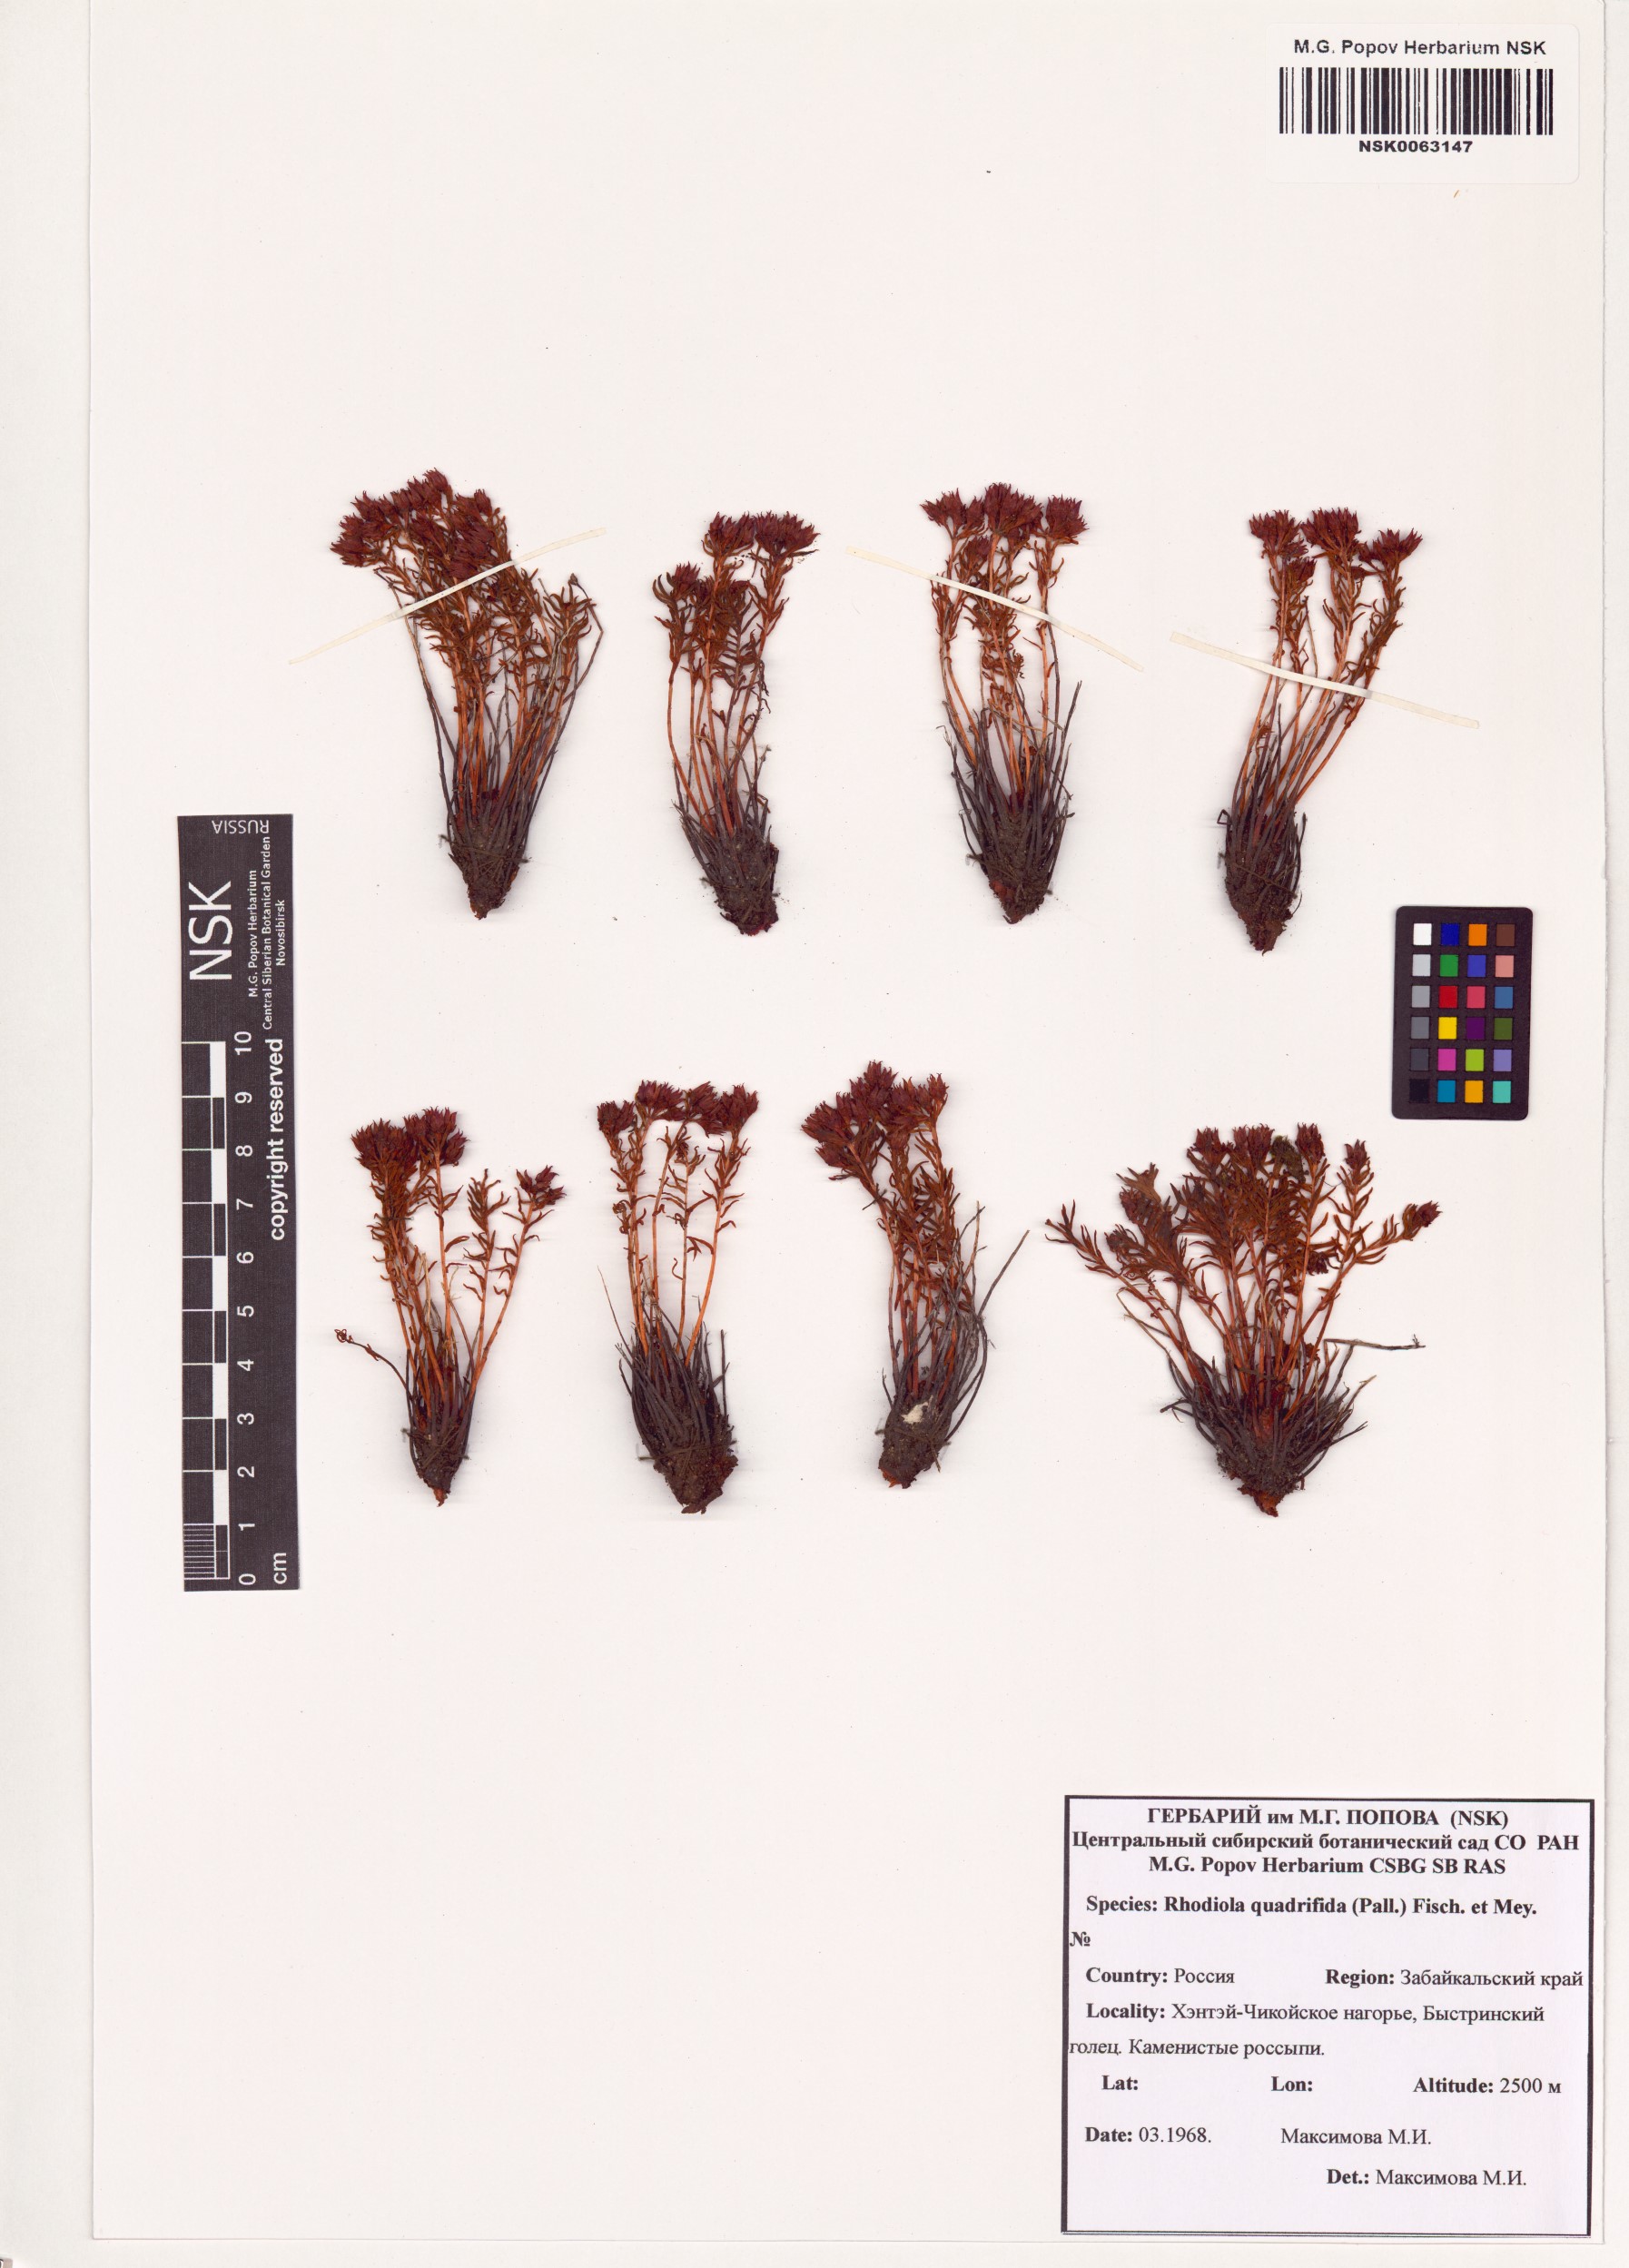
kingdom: Plantae
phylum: Tracheophyta
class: Magnoliopsida
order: Saxifragales
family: Crassulaceae
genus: Rhodiola
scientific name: Rhodiola quadrifida
